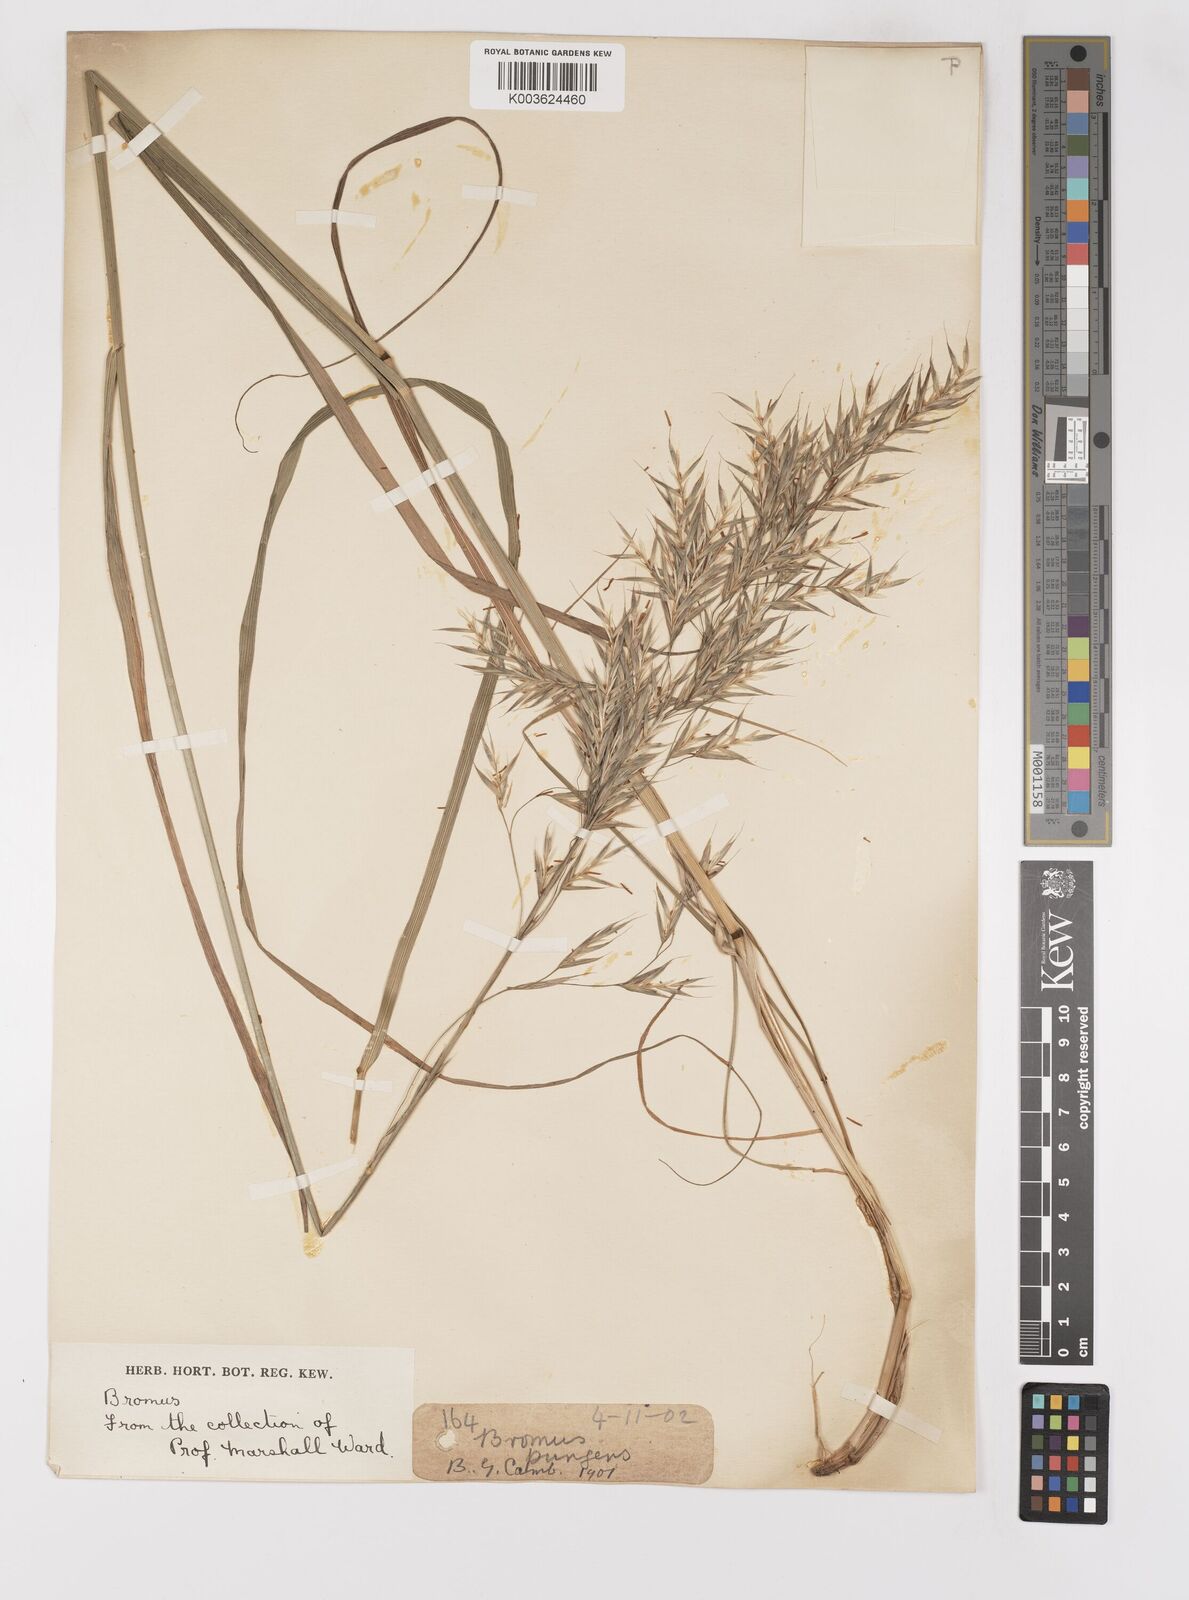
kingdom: Plantae
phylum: Tracheophyta
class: Liliopsida
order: Poales
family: Poaceae
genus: Bromus
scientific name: Bromus
